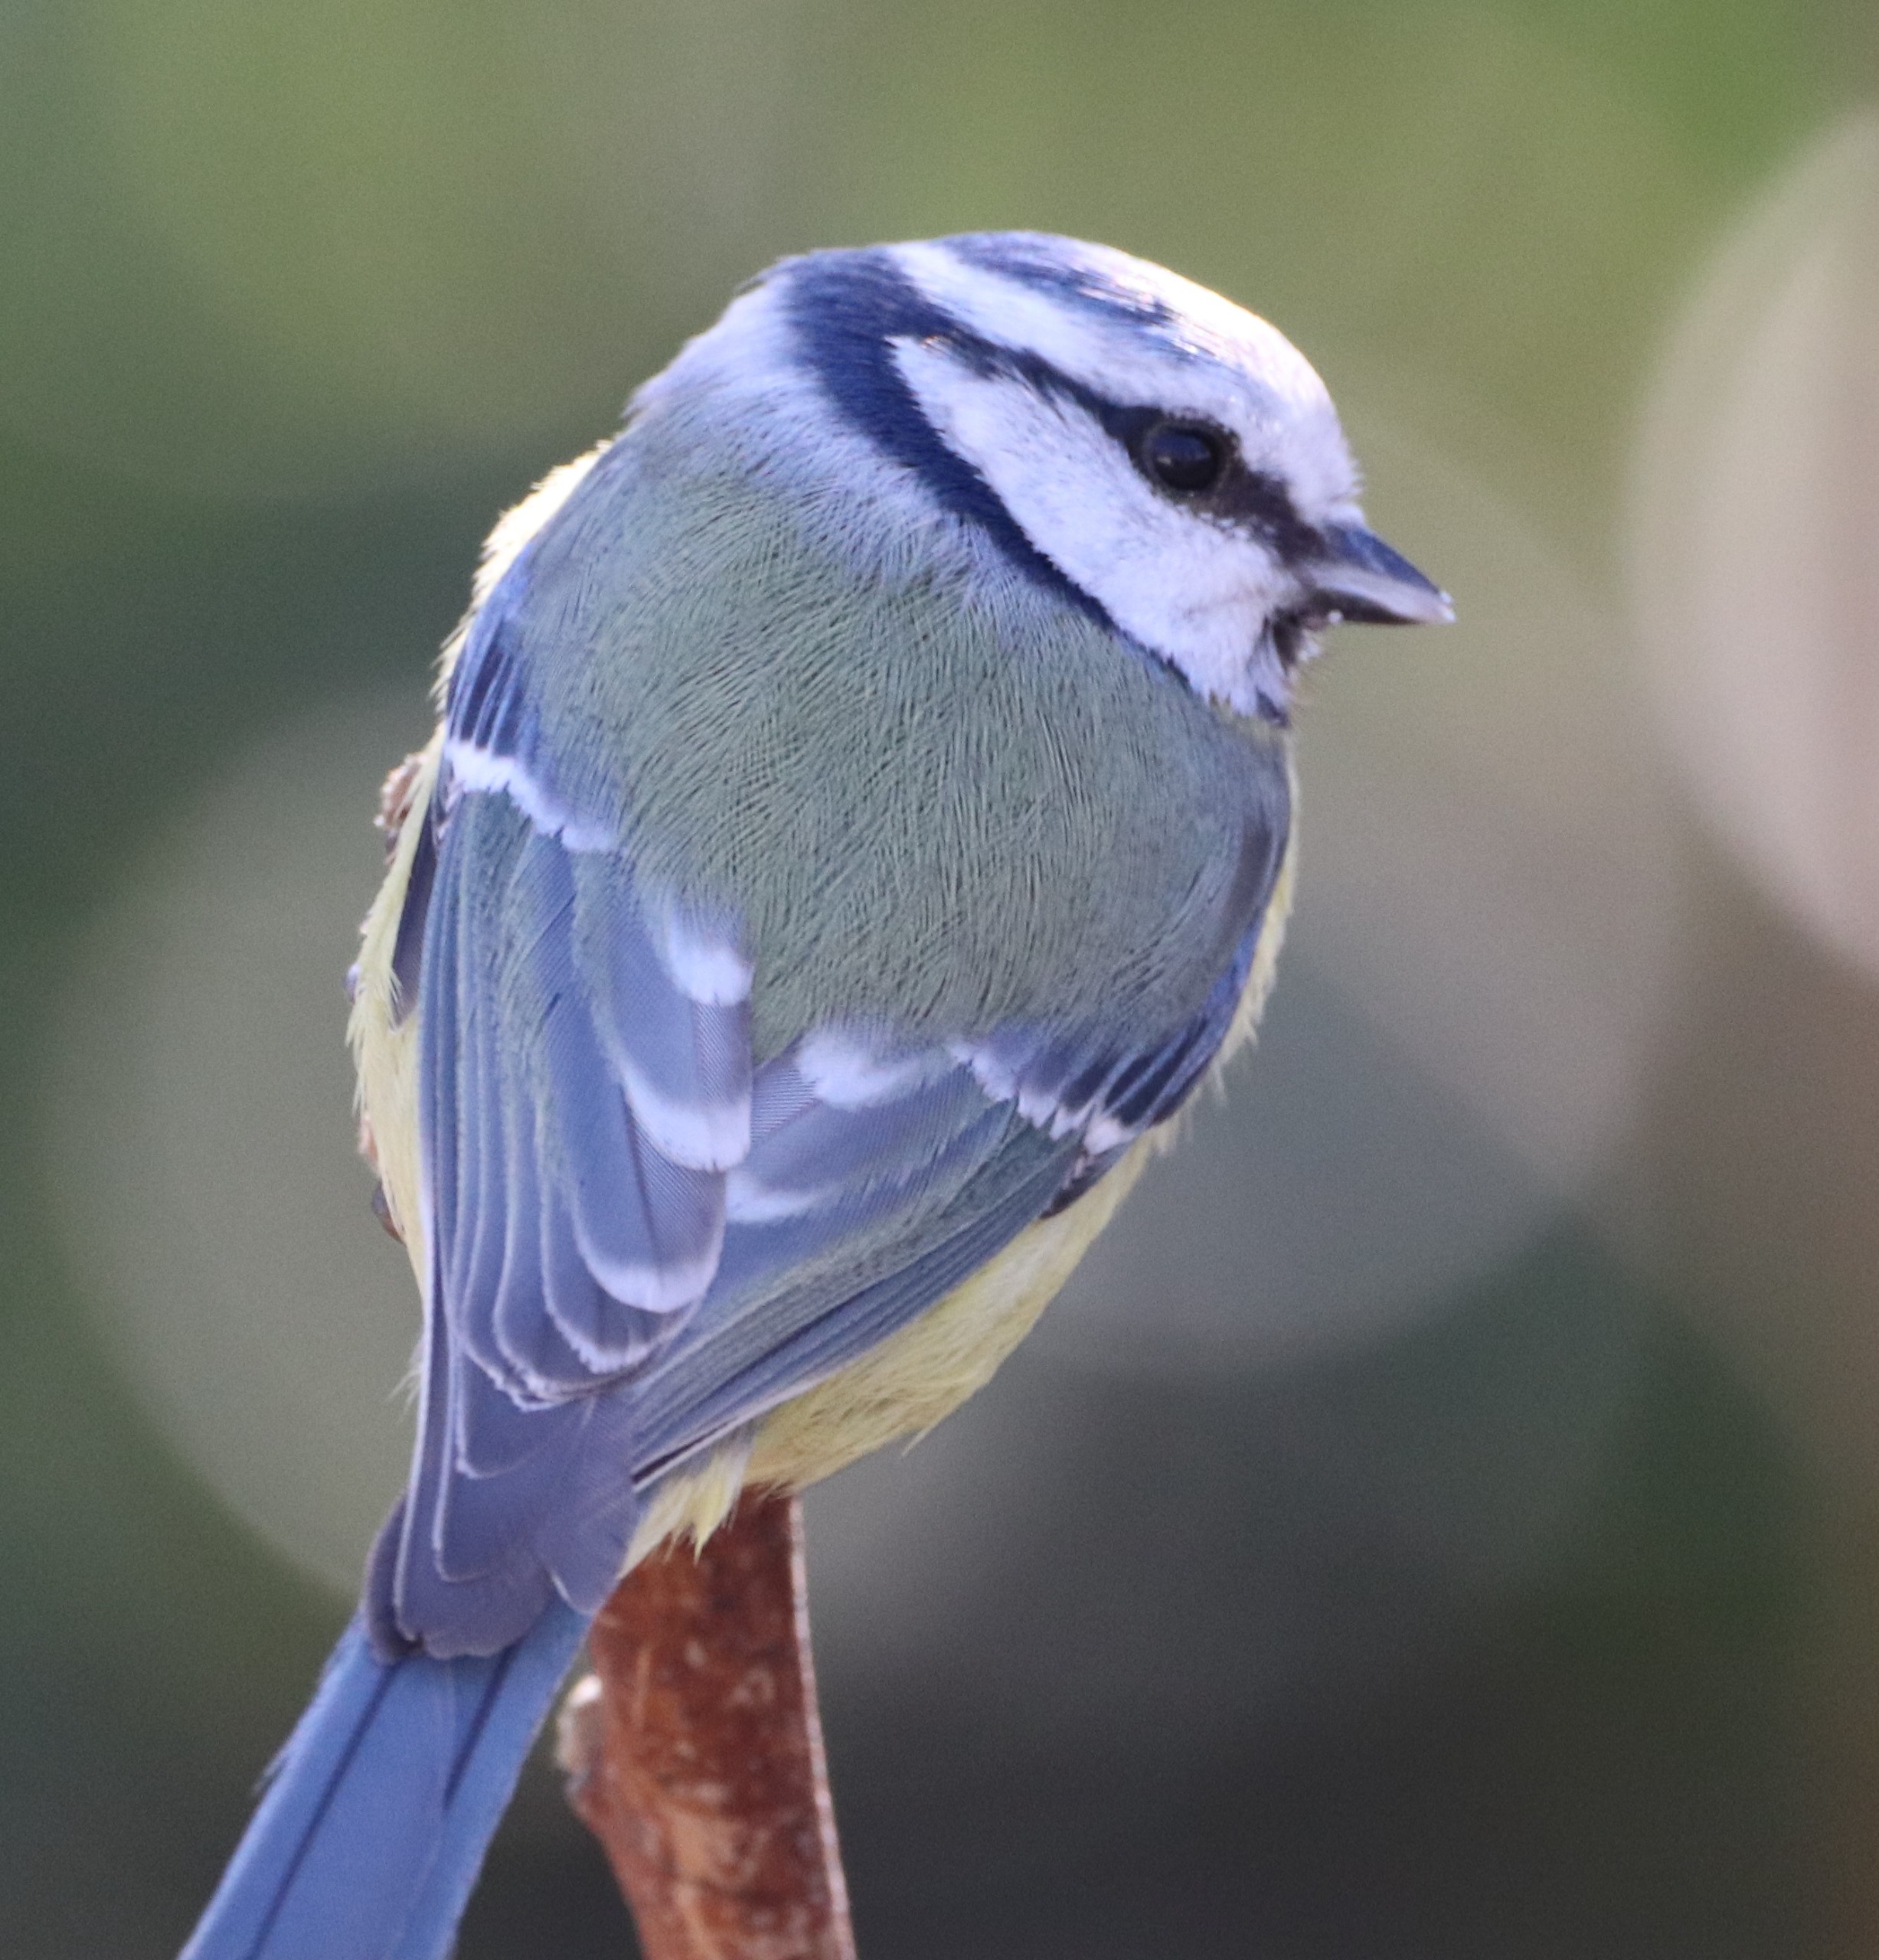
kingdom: Animalia
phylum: Chordata
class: Aves
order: Passeriformes
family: Paridae
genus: Cyanistes
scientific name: Cyanistes caeruleus
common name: Blåmejse
